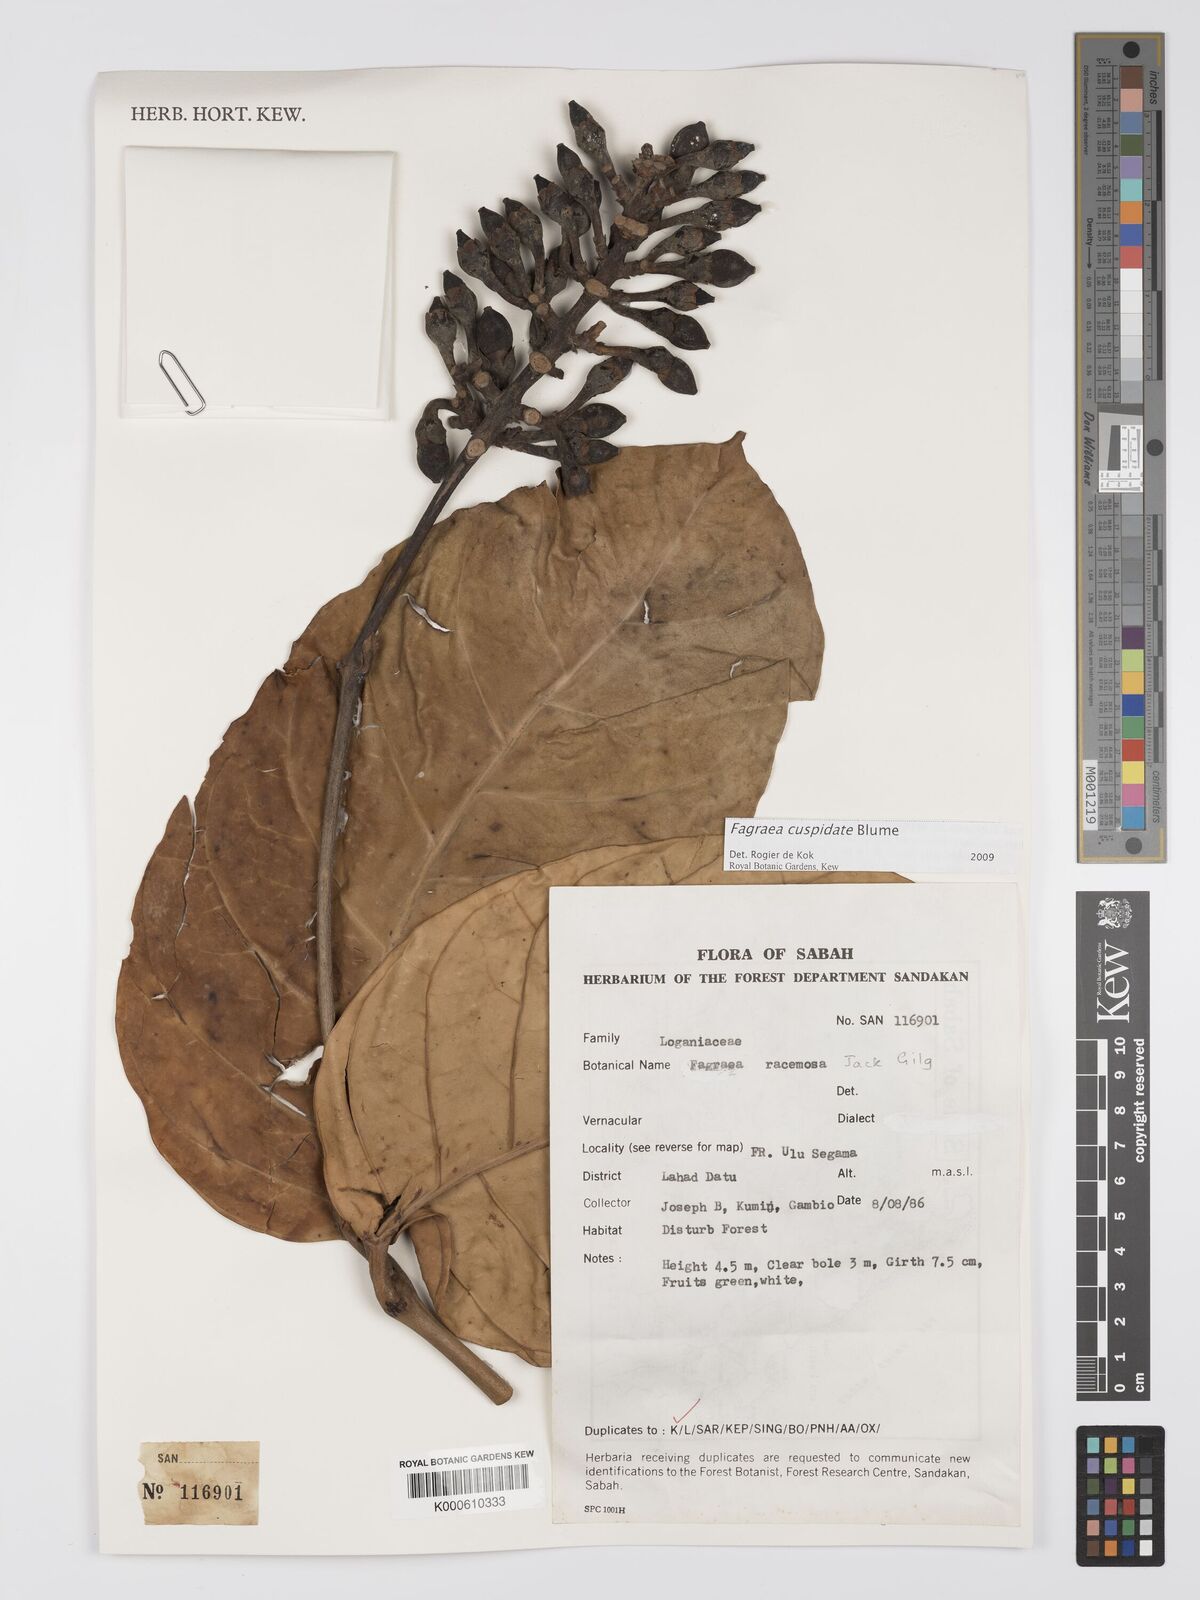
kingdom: Plantae
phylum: Tracheophyta
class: Magnoliopsida
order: Gentianales
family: Gentianaceae
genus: Utania
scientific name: Utania cuspidata
